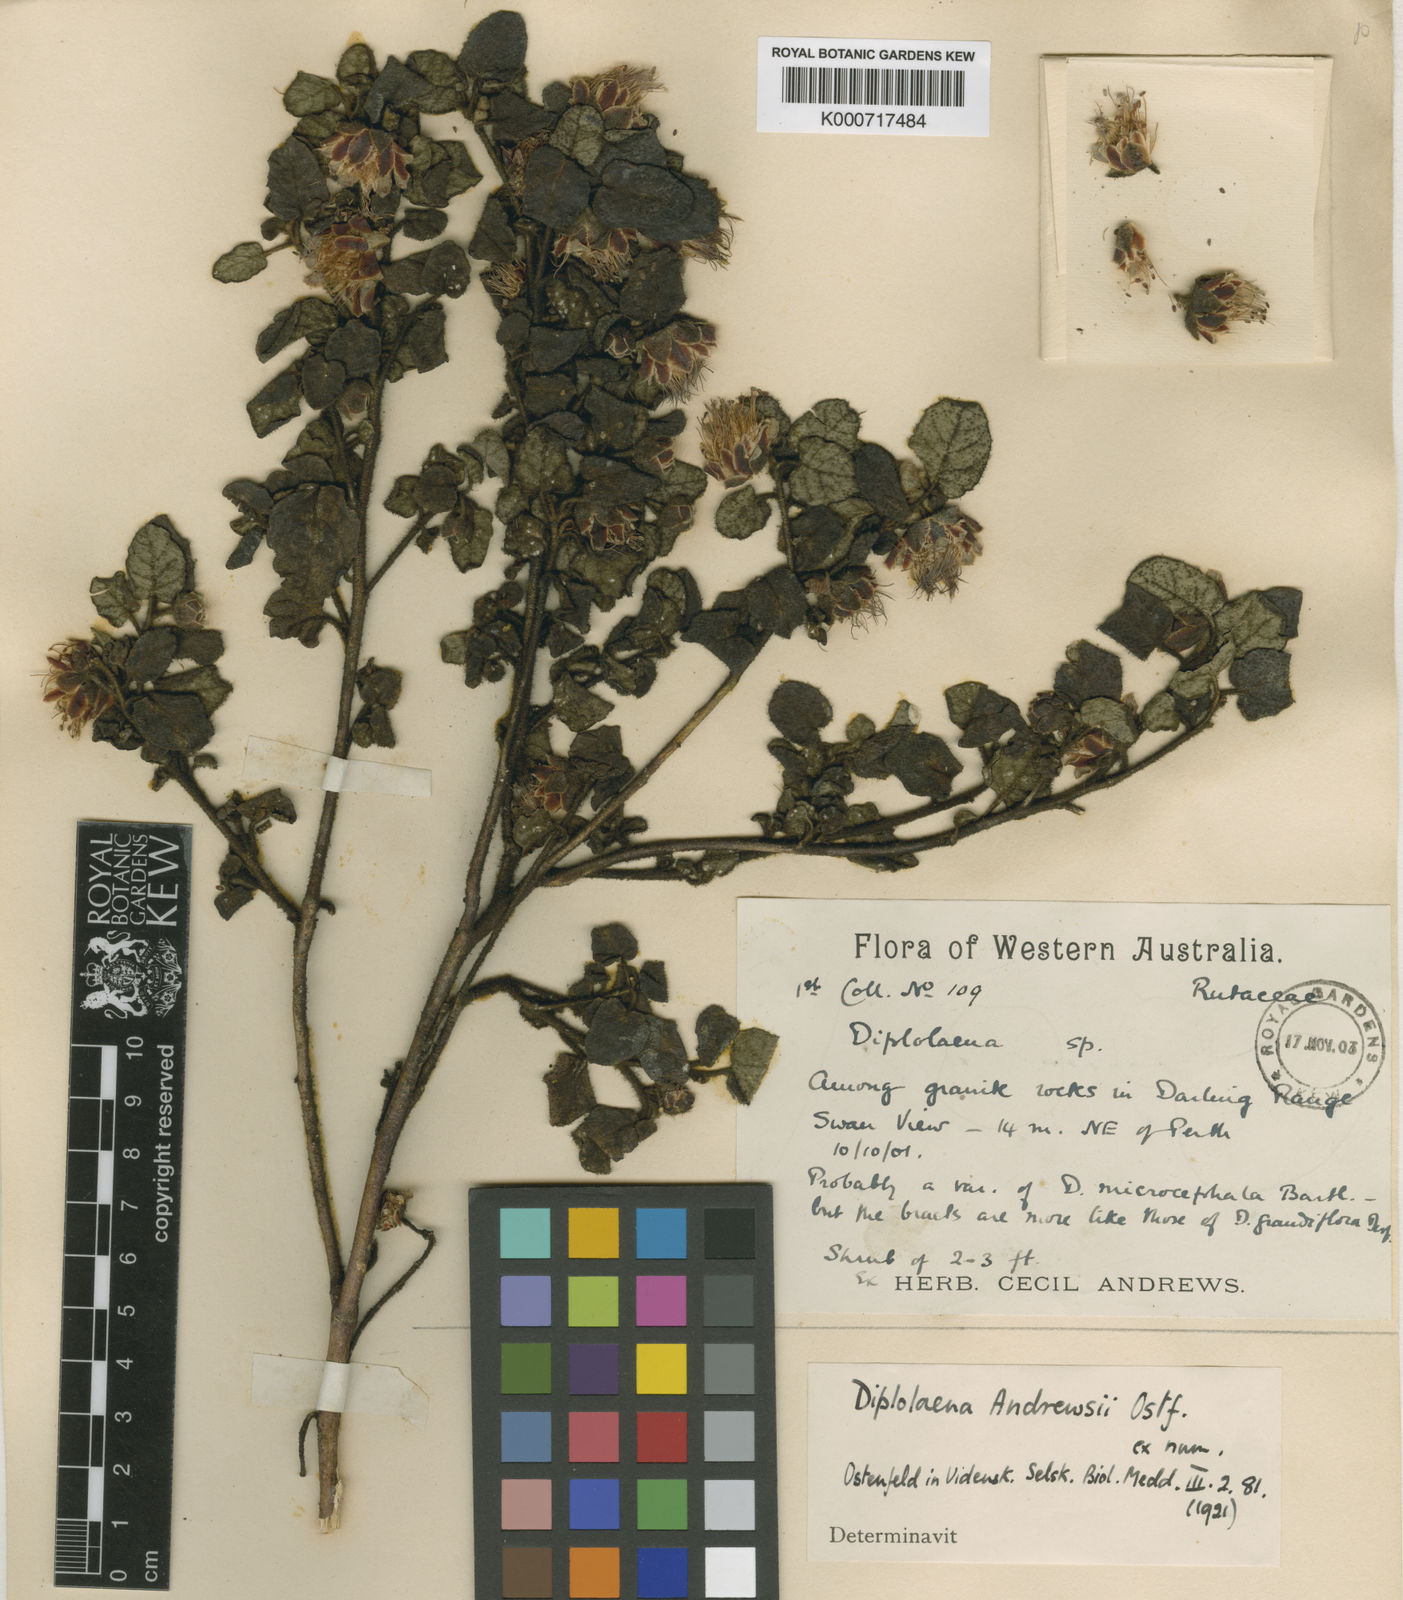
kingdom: Plantae
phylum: Tracheophyta
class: Magnoliopsida
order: Sapindales
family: Rutaceae
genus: Diplolaena
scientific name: Diplolaena andrewsii
